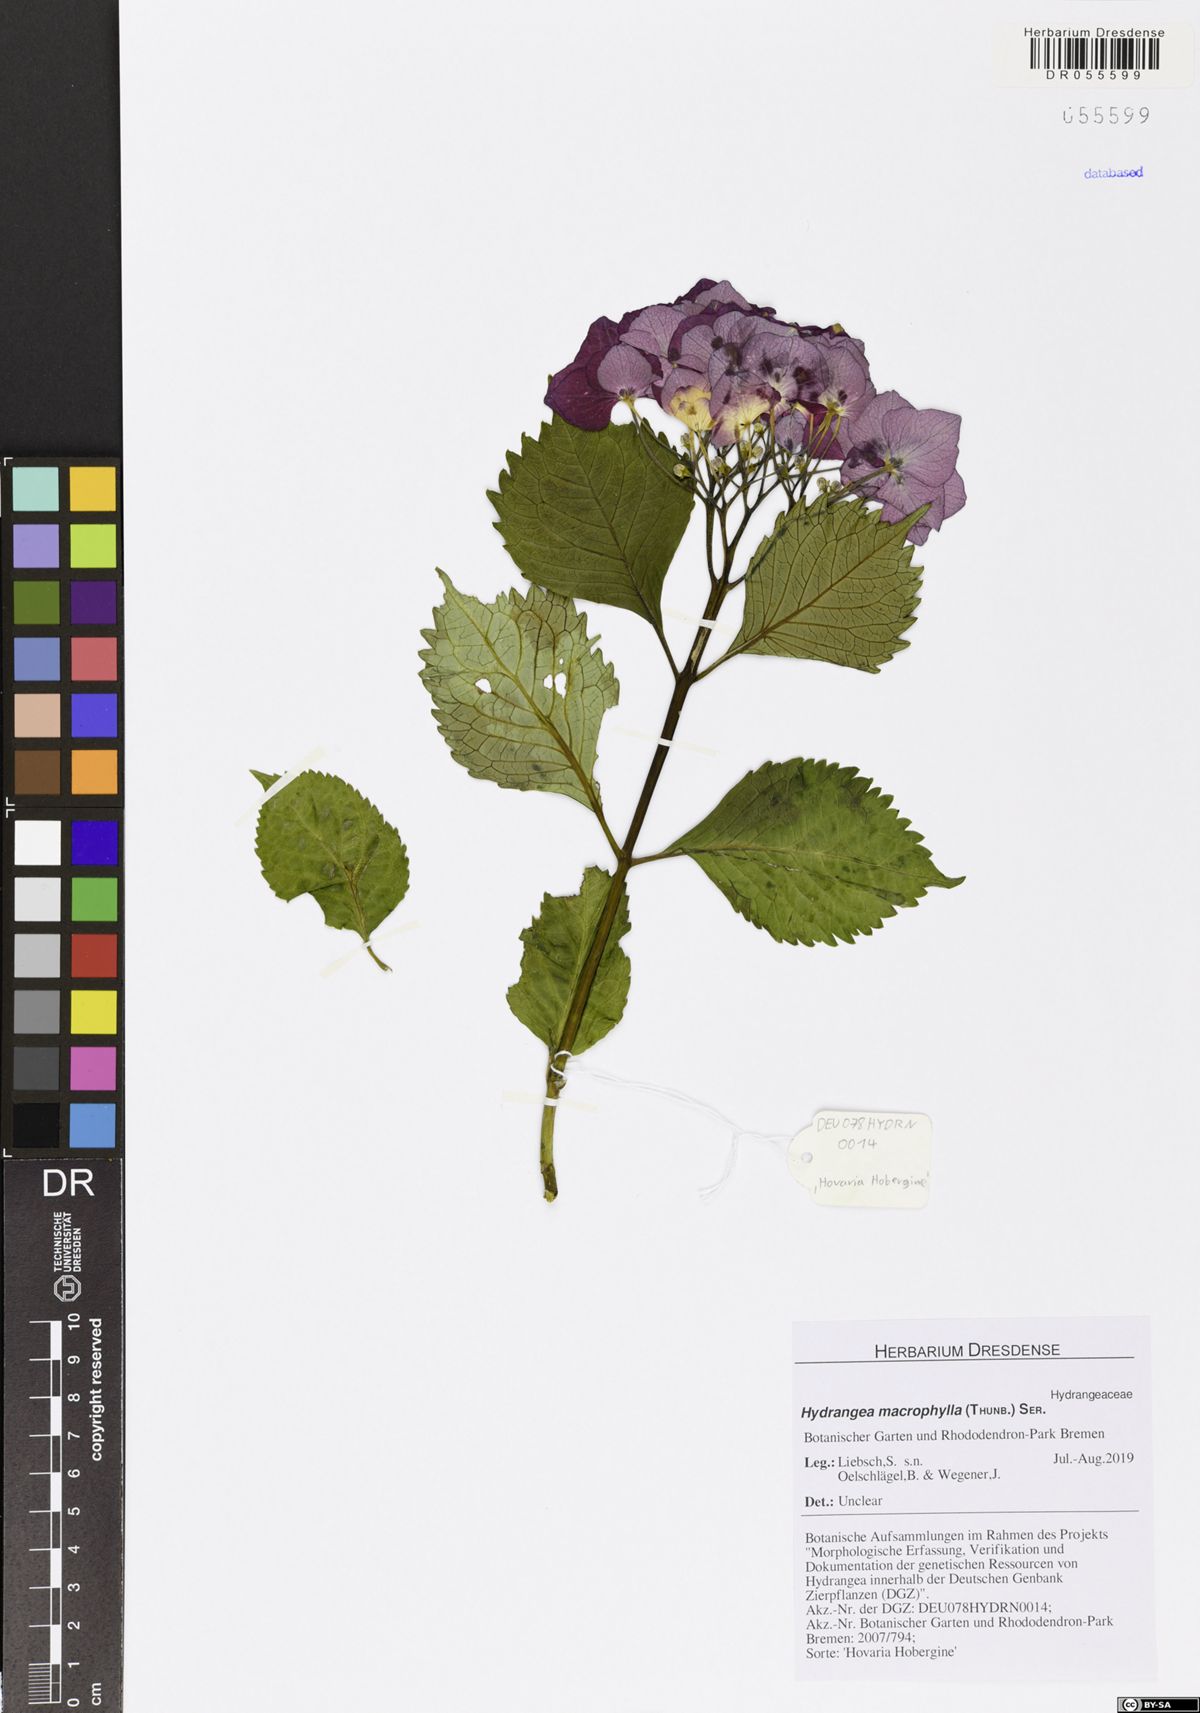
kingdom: Plantae
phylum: Tracheophyta
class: Magnoliopsida
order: Cornales
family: Hydrangeaceae
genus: Hydrangea
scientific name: Hydrangea macrophylla
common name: Hydrangea
